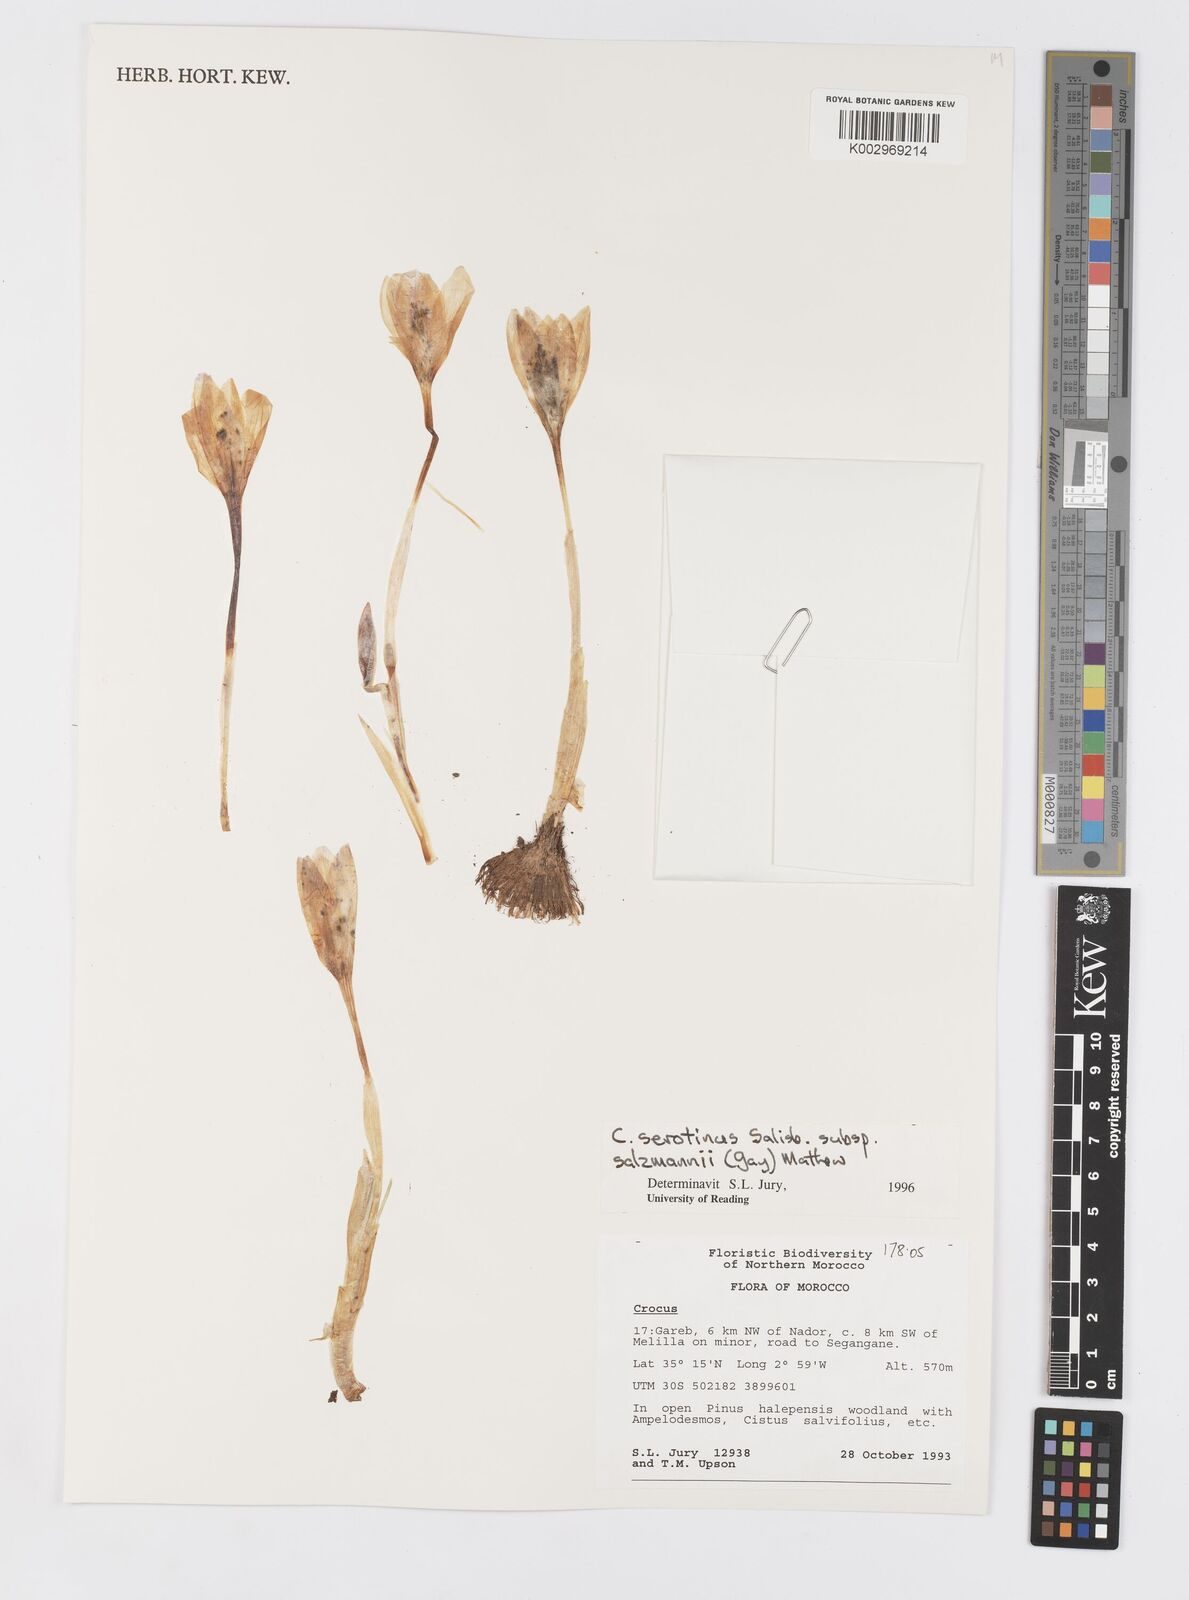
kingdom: Plantae
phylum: Tracheophyta
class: Liliopsida
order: Asparagales
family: Iridaceae
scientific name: Iridaceae
